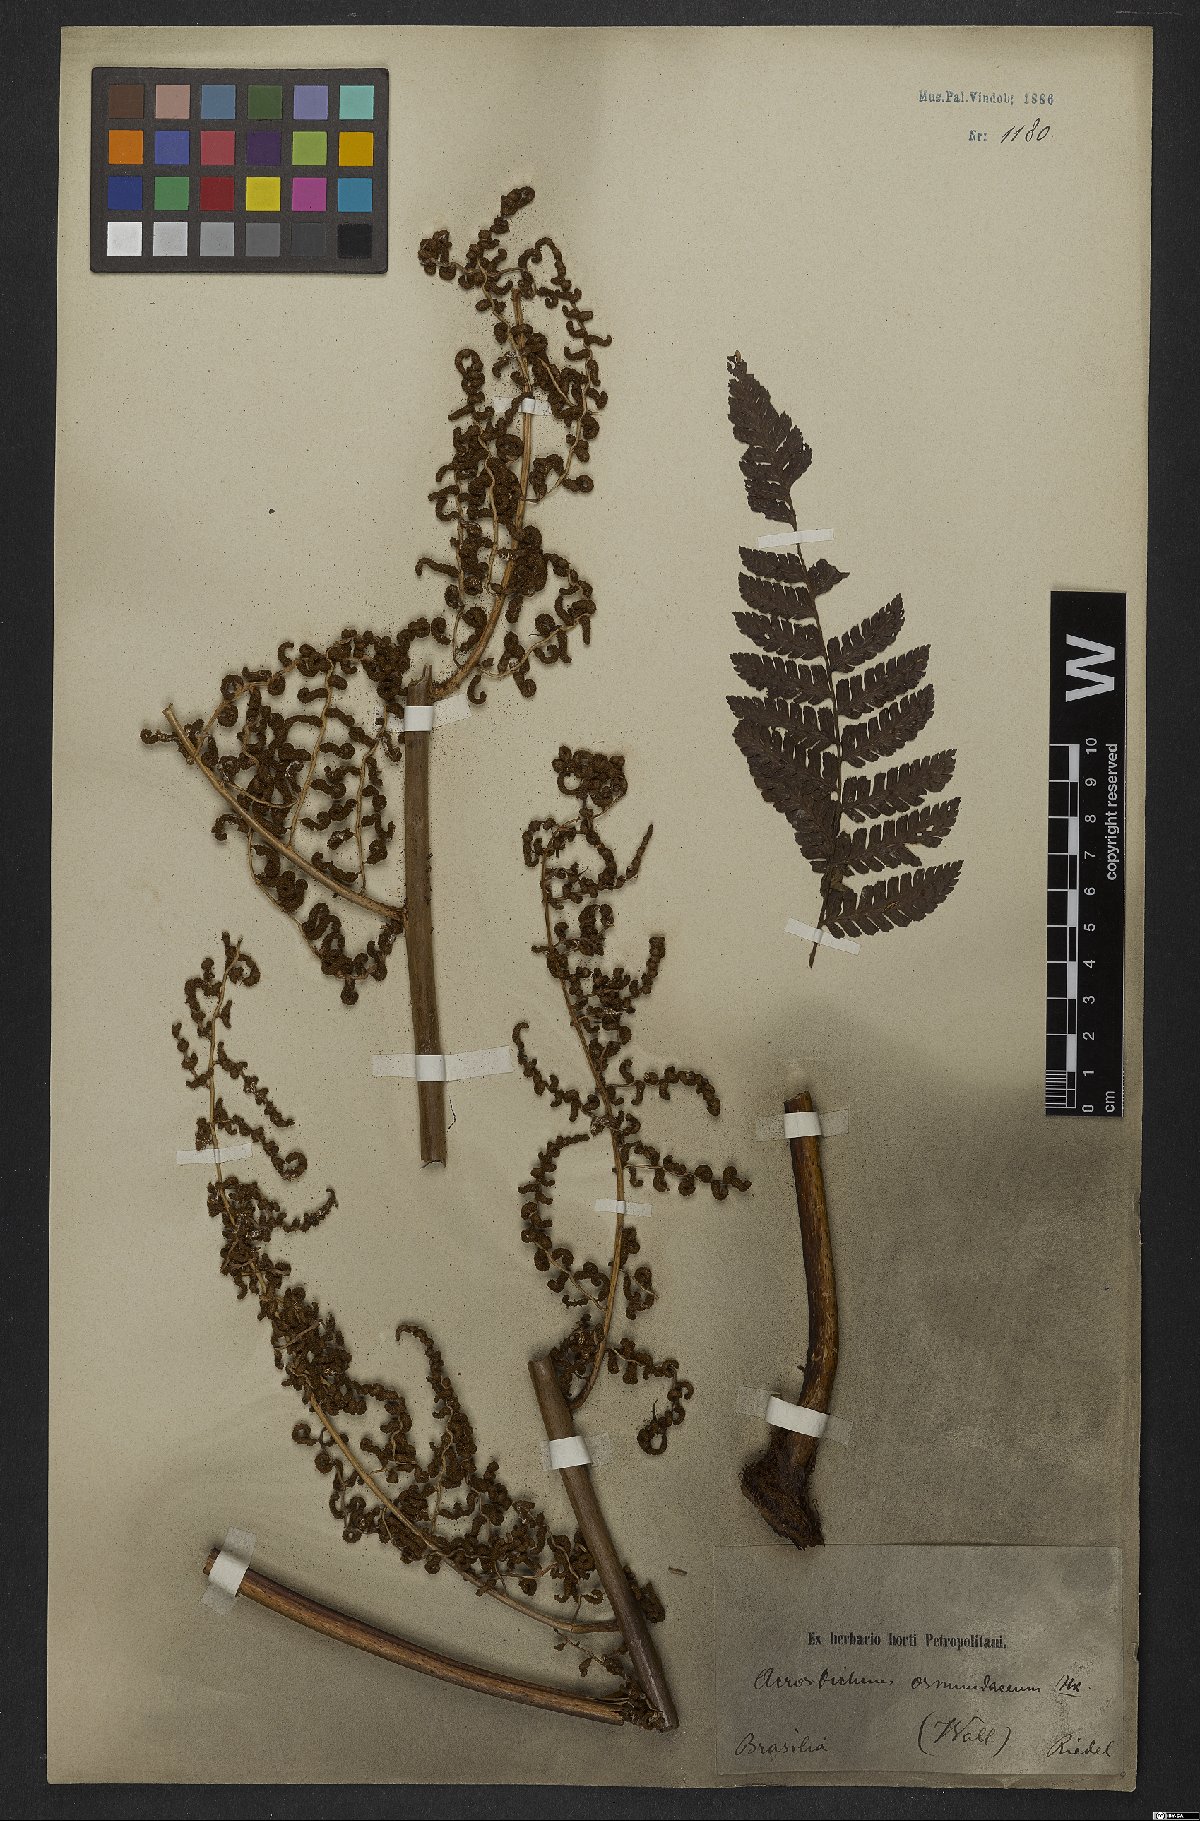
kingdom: Plantae
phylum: Tracheophyta
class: Polypodiopsida
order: Polypodiales
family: Dryopteridaceae
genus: Polybotrya
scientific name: Polybotrya osmundacea
